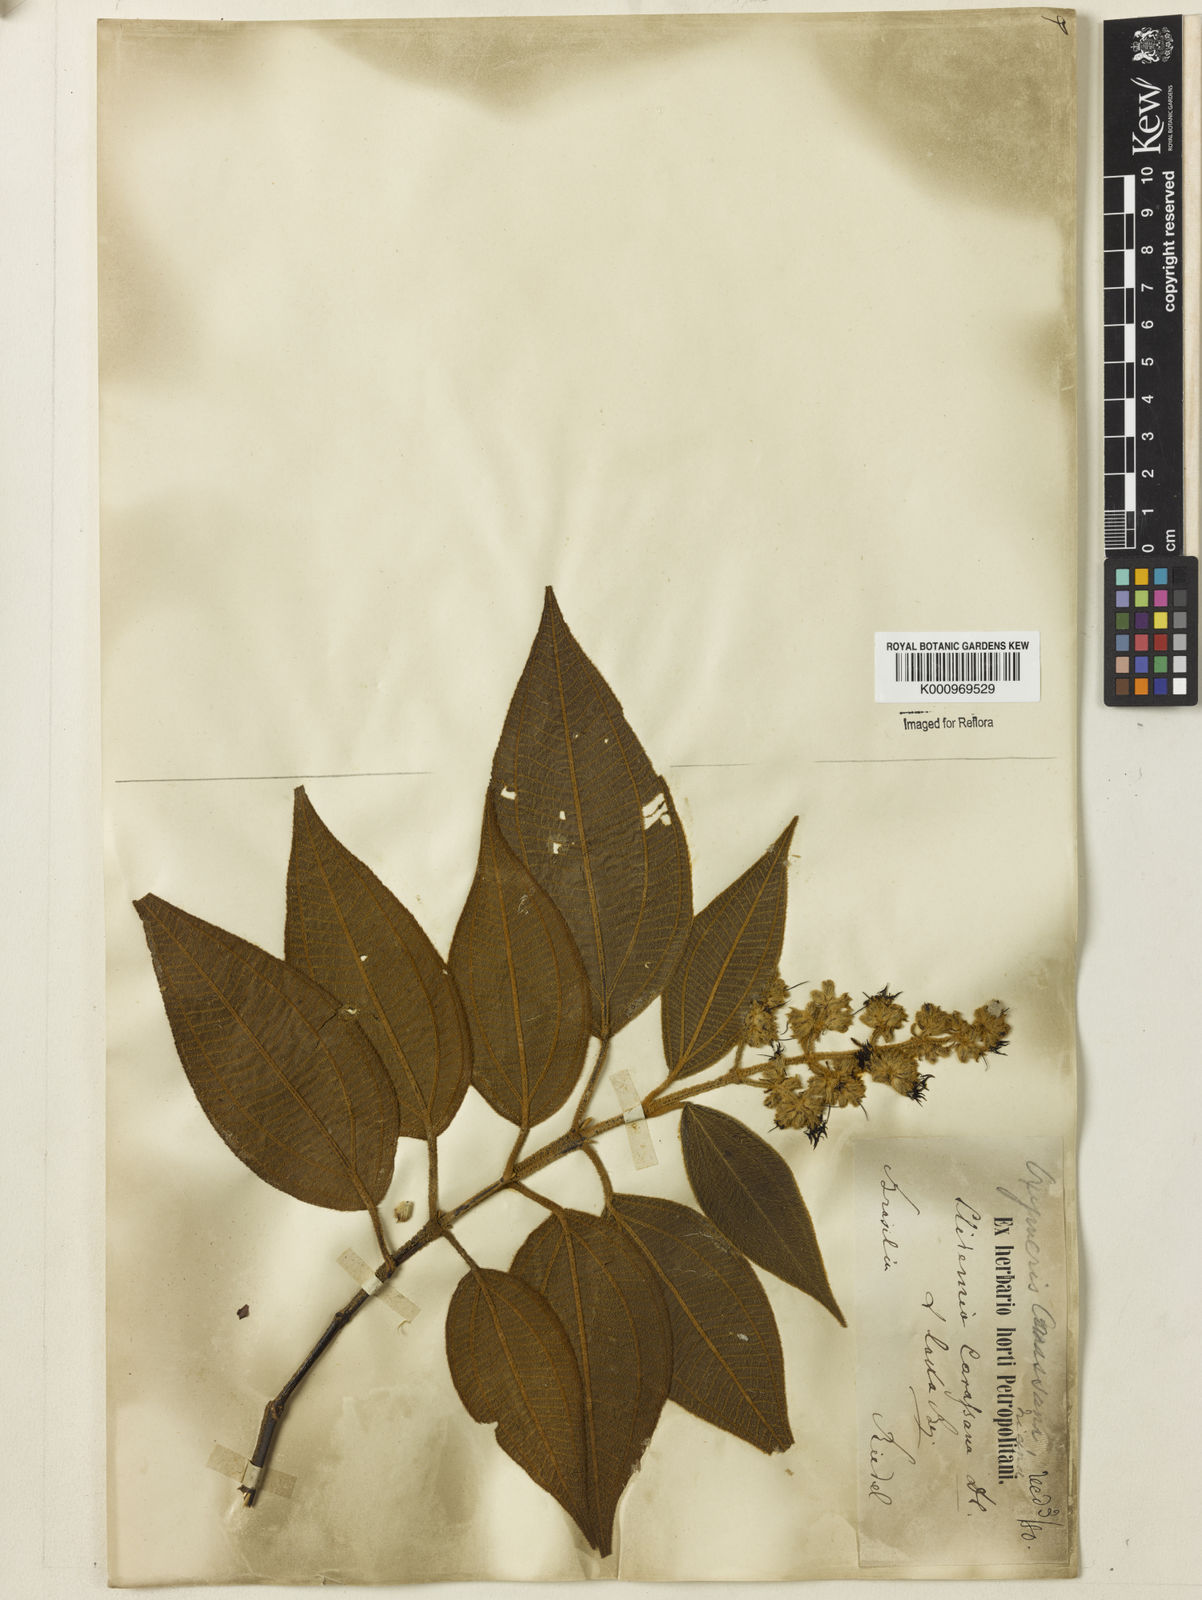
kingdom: Plantae
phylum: Tracheophyta
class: Magnoliopsida
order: Myrtales
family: Melastomataceae
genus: Miconia
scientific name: Miconia sublanata
